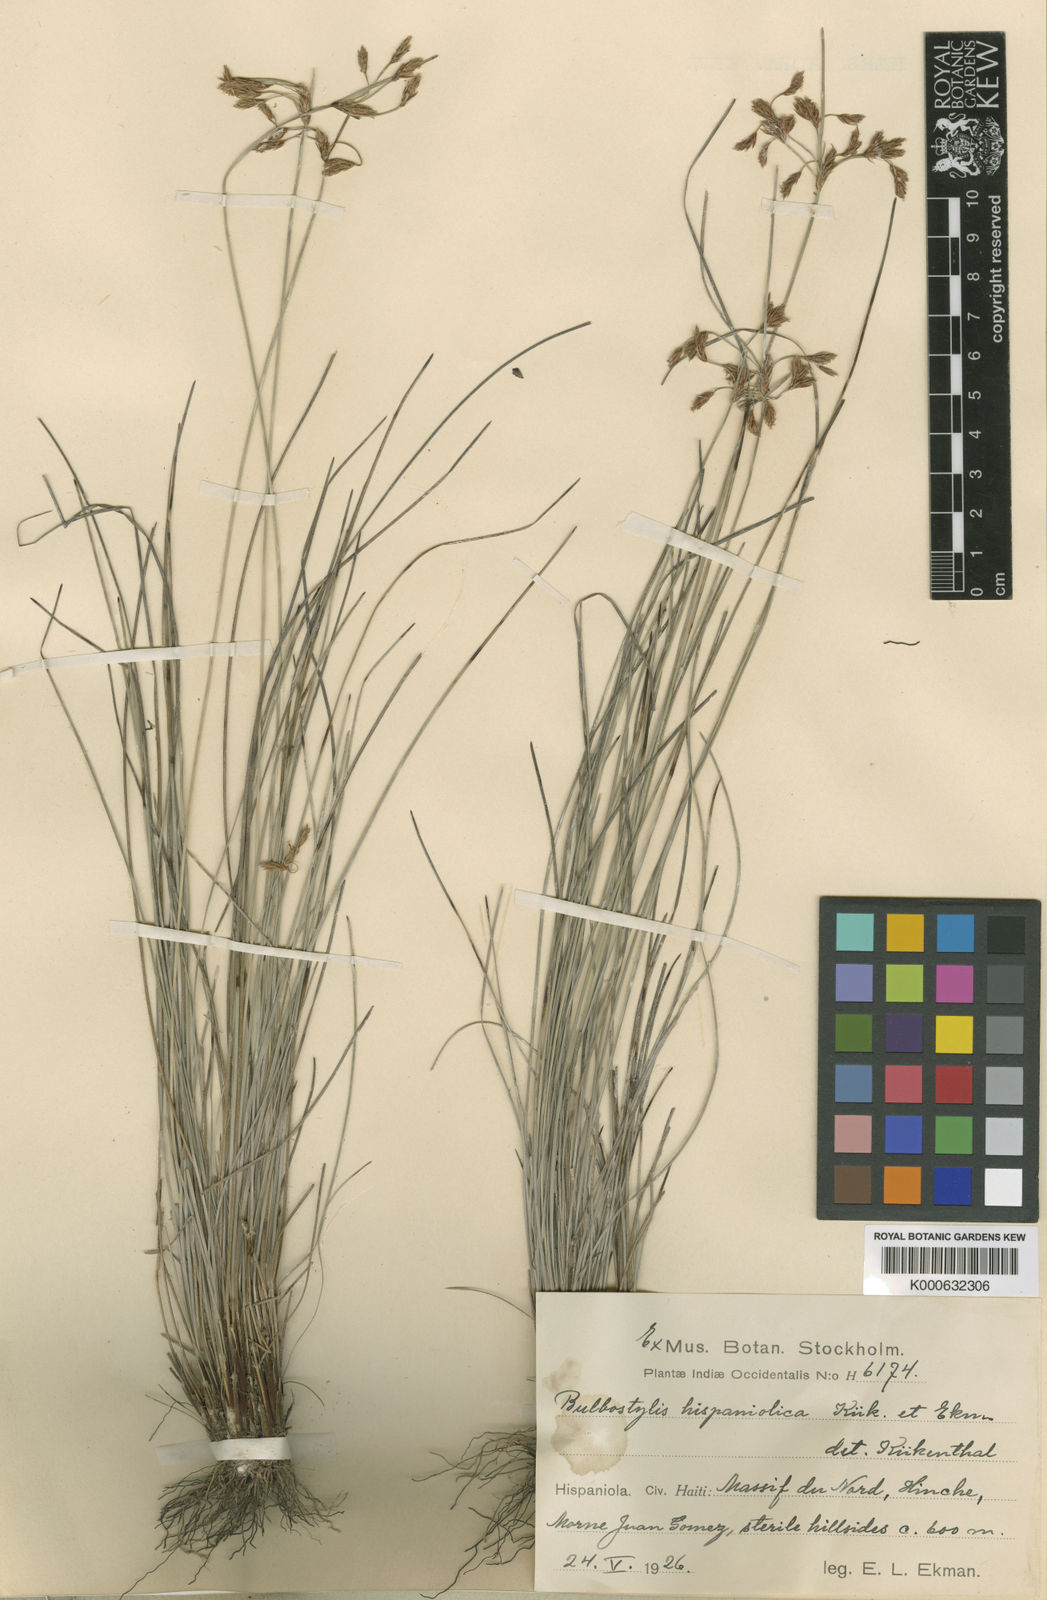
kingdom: Plantae
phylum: Tracheophyta
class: Liliopsida
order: Poales
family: Cyperaceae
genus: Bulbostylis
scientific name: Bulbostylis
